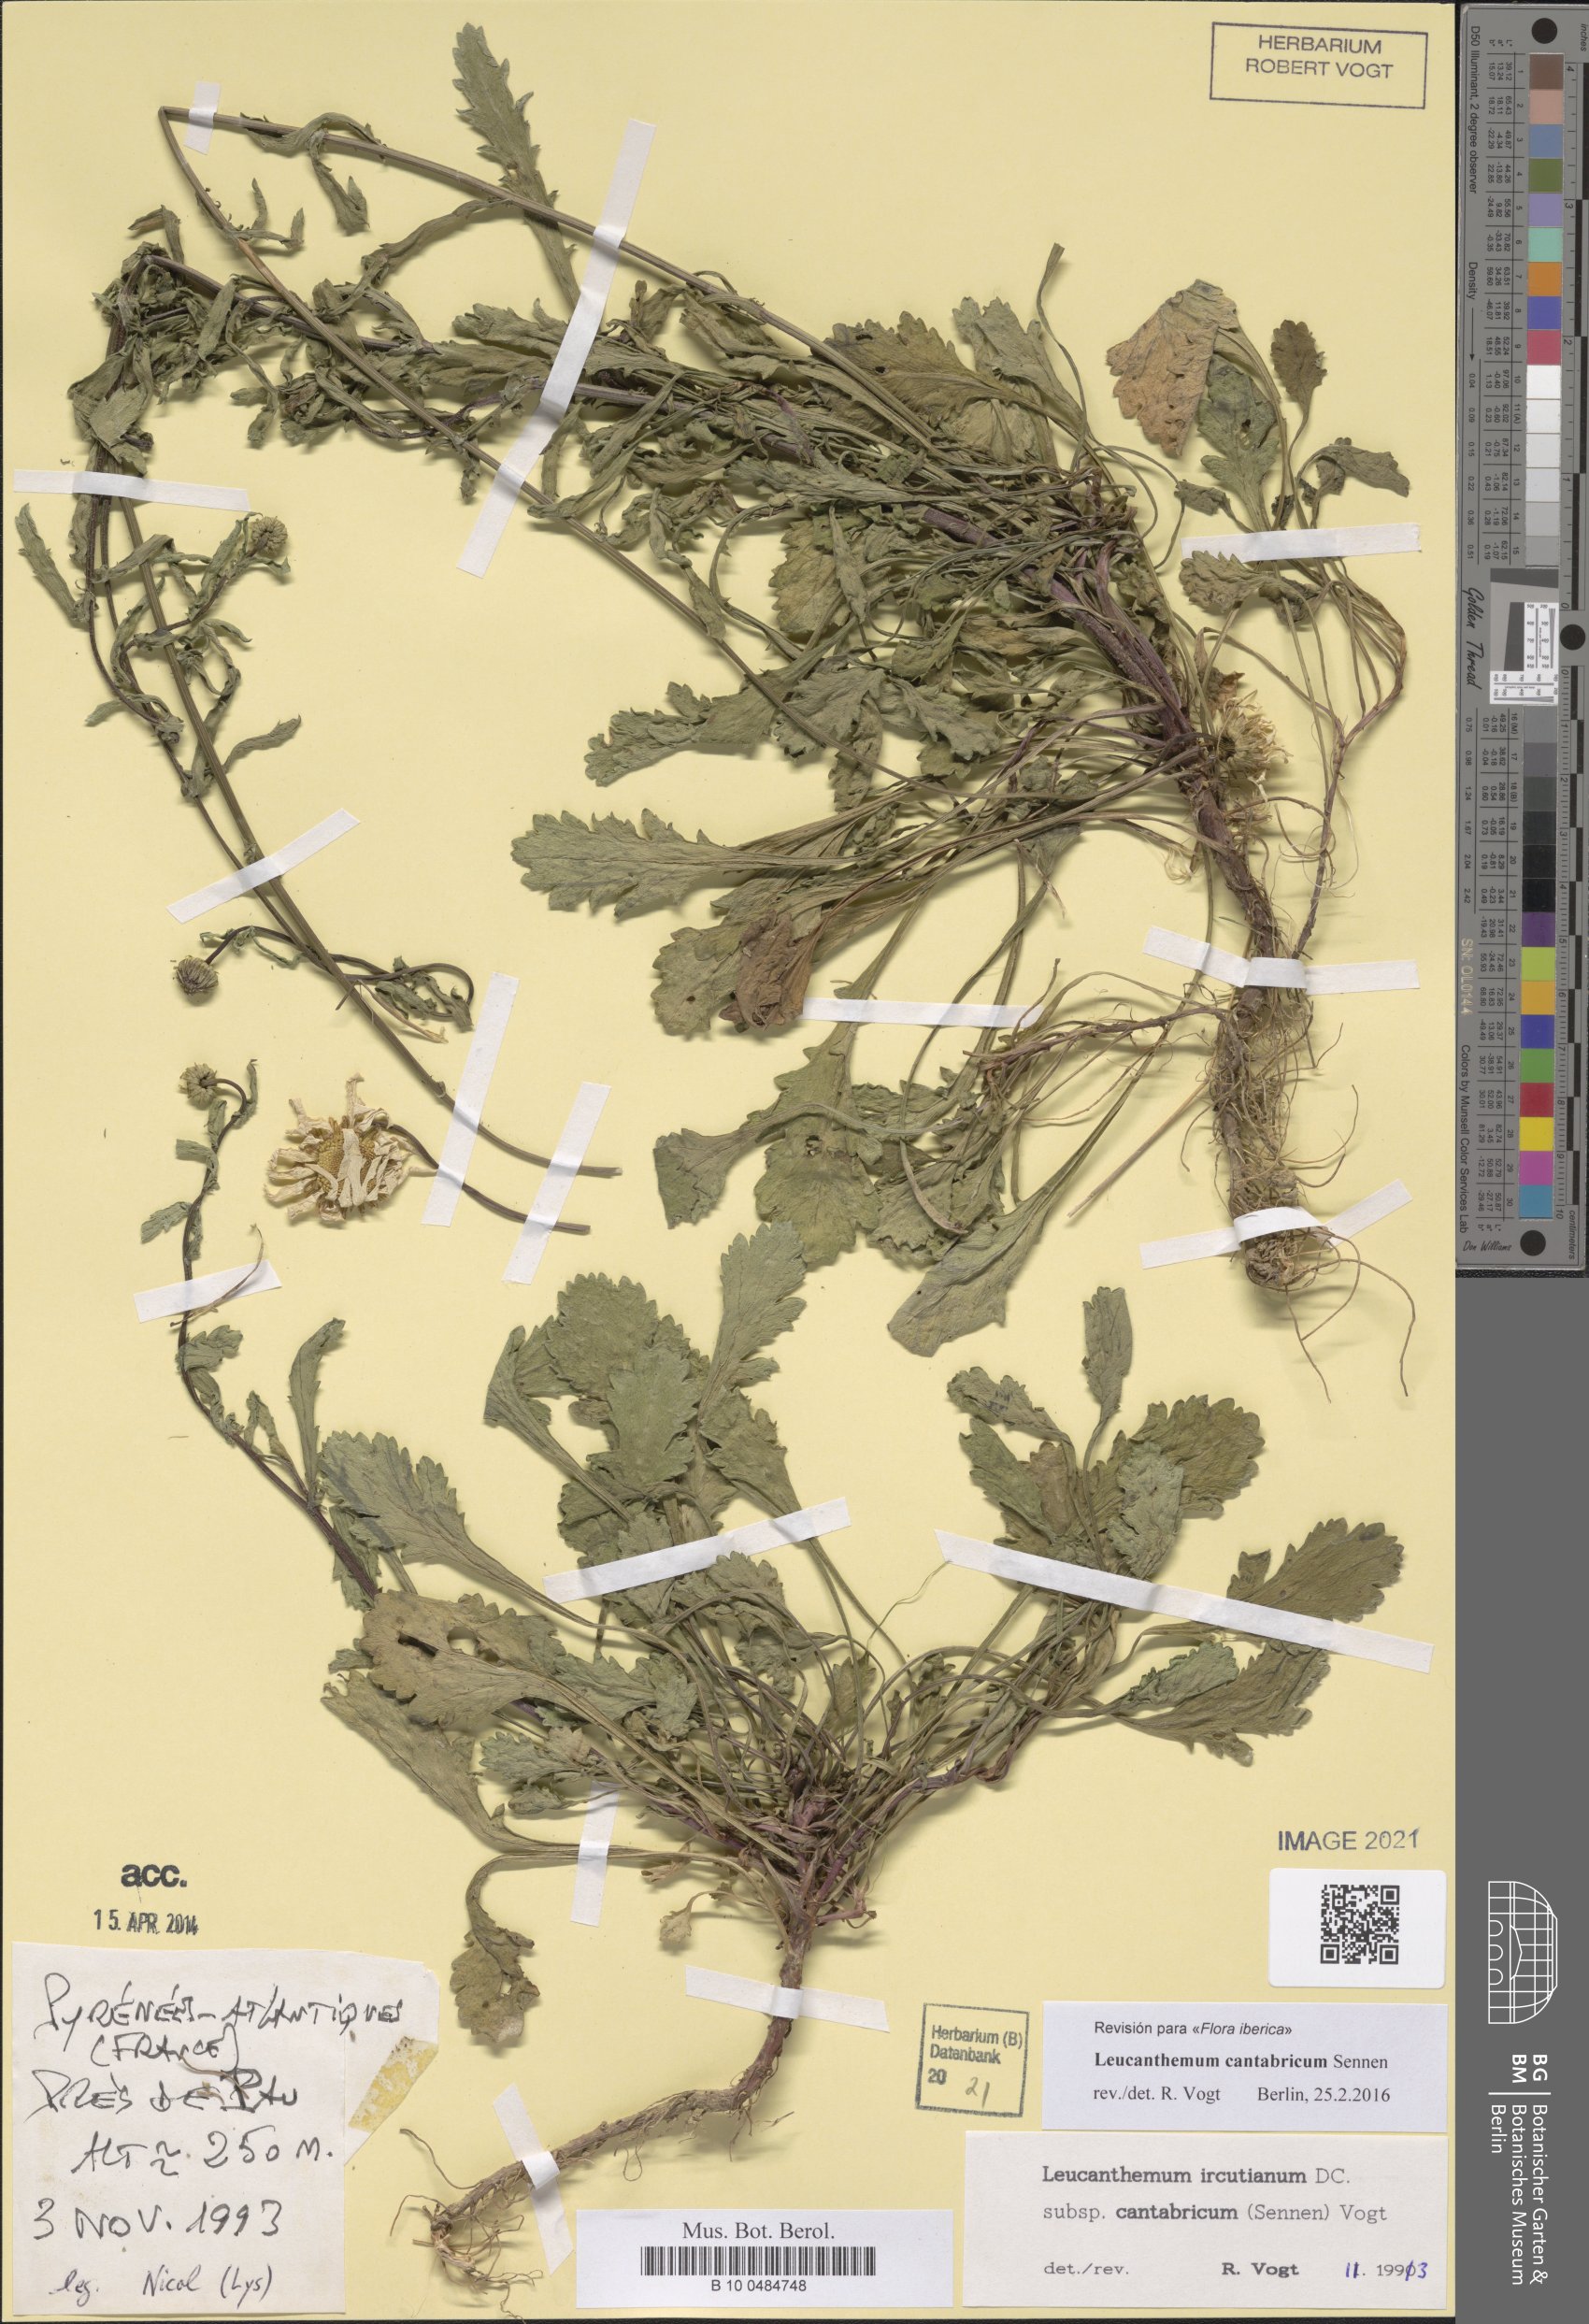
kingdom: Plantae
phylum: Tracheophyta
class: Magnoliopsida
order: Asterales
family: Asteraceae
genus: Leucanthemum
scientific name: Leucanthemum cantabricum
